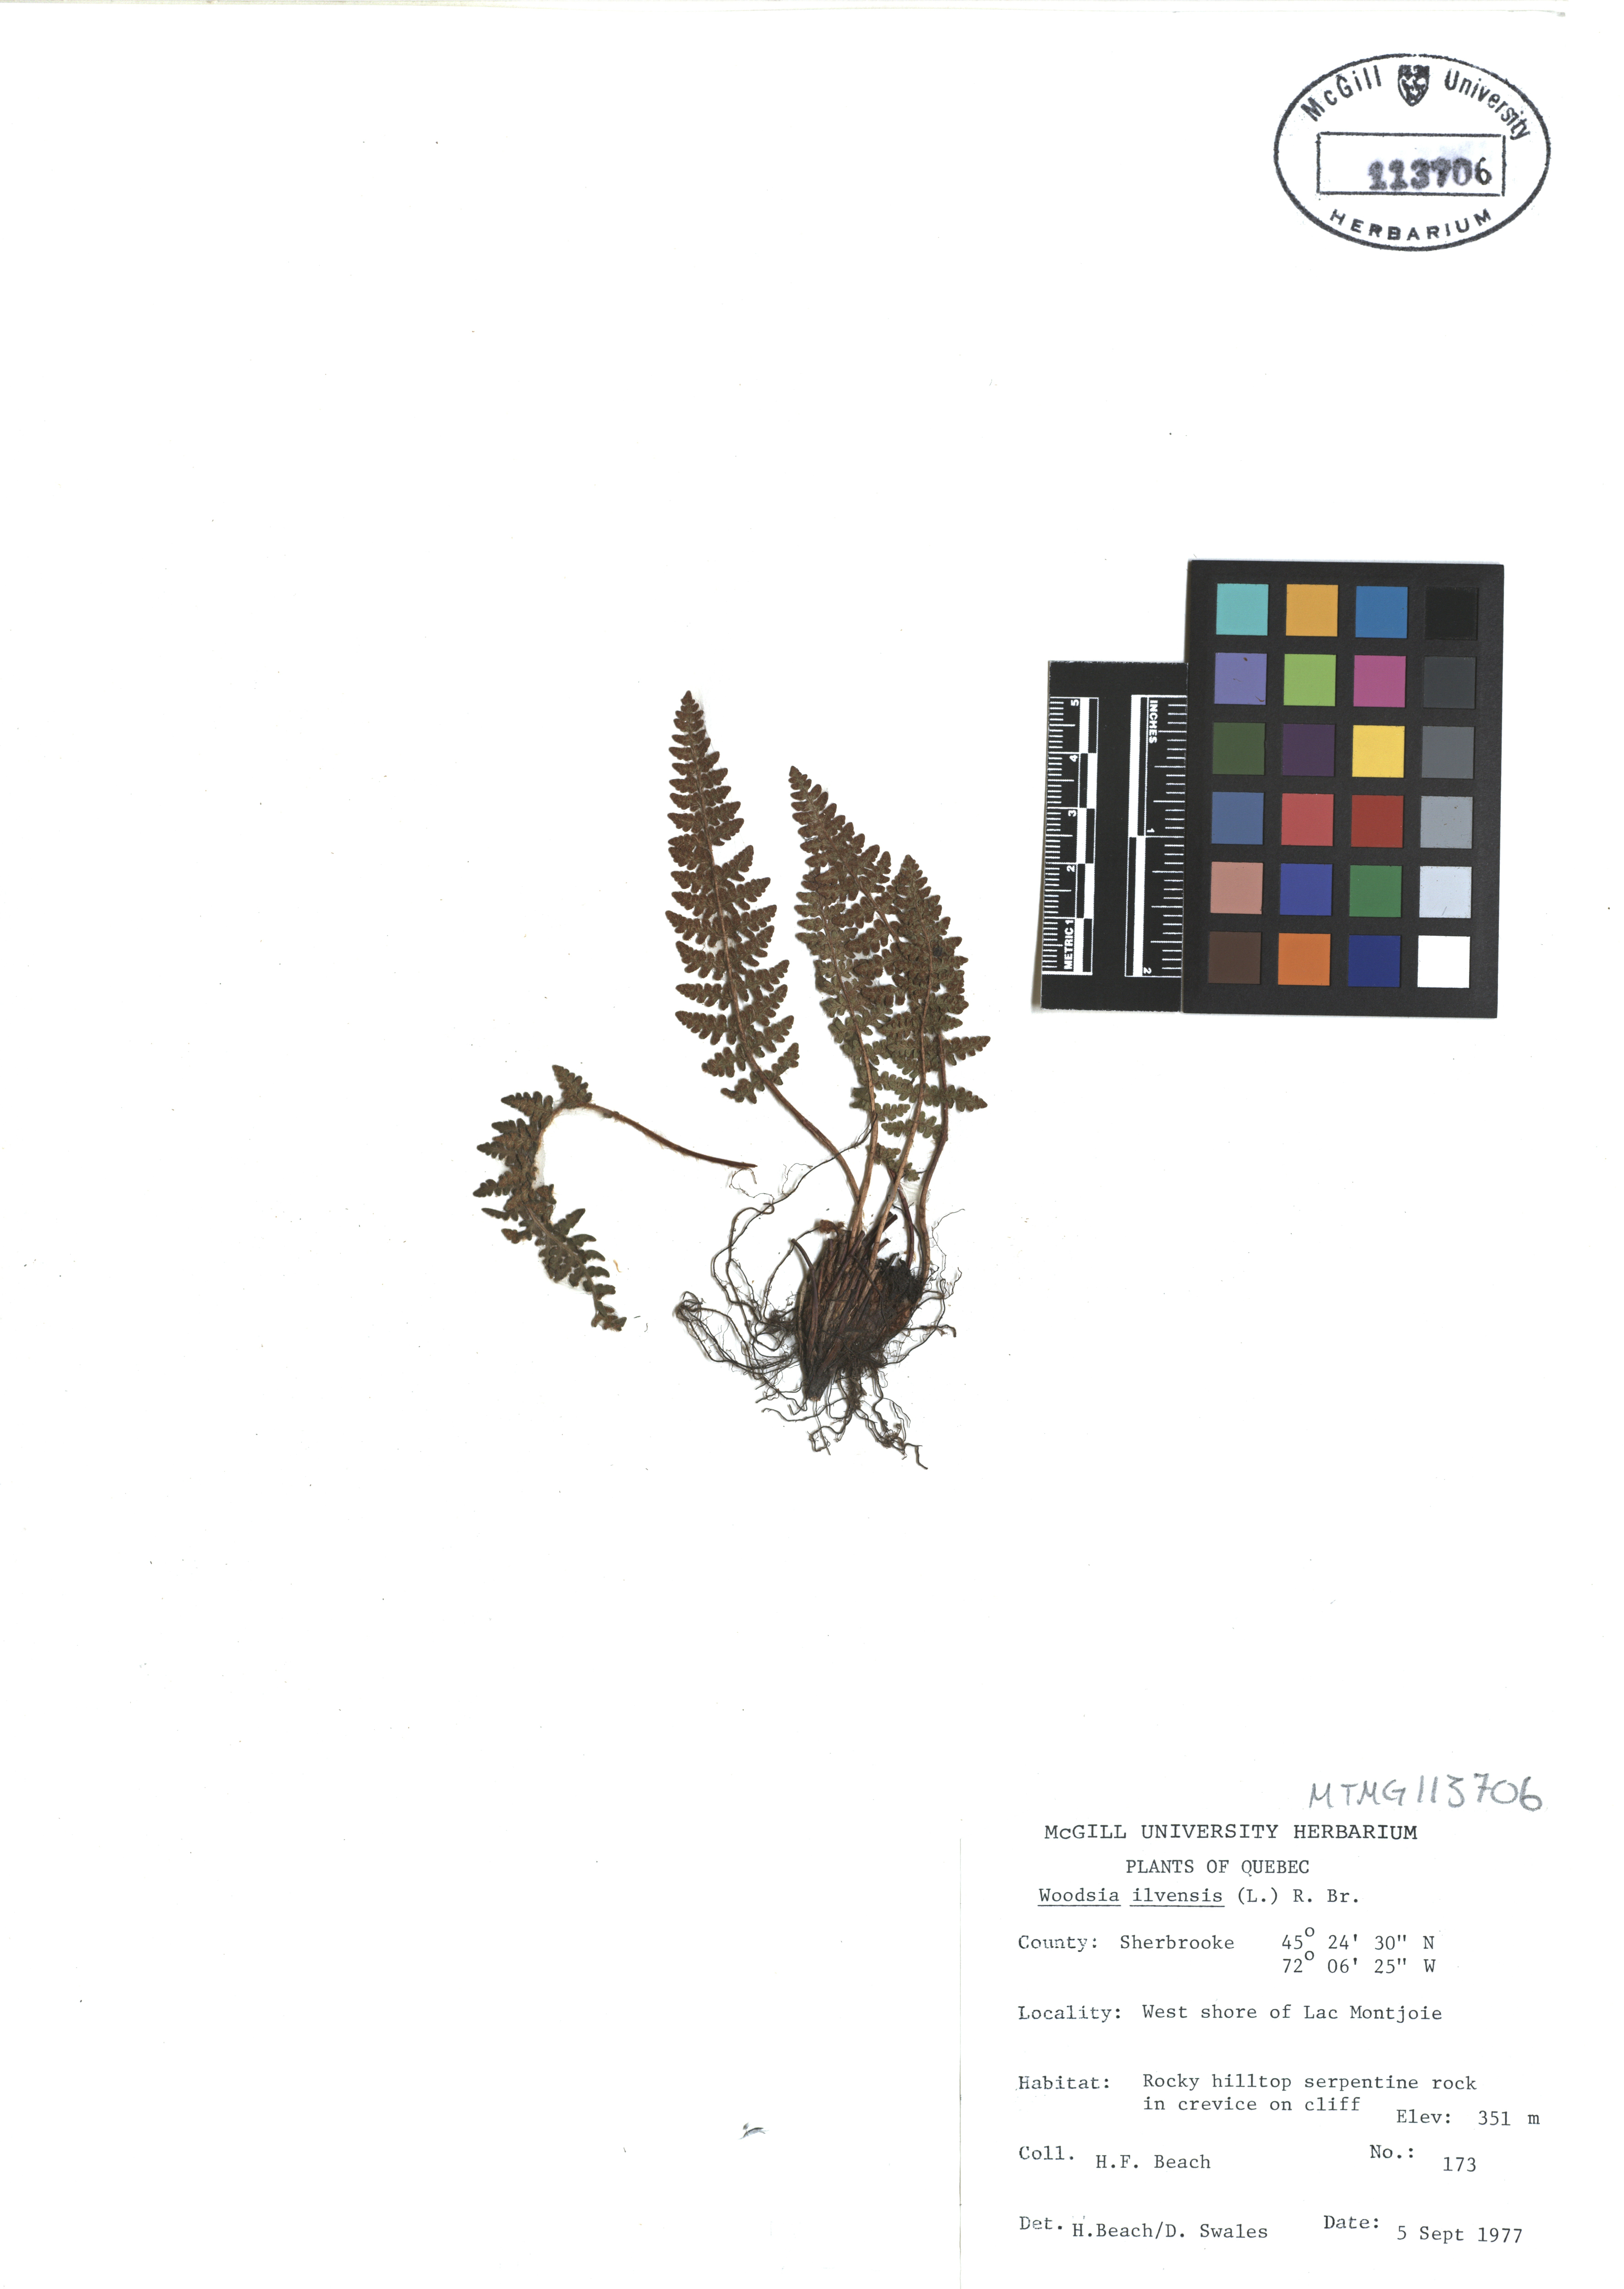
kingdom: Plantae
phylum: Tracheophyta
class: Polypodiopsida
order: Polypodiales
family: Woodsiaceae
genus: Woodsia
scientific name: Woodsia ilvensis
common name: Fragrant woodsia
